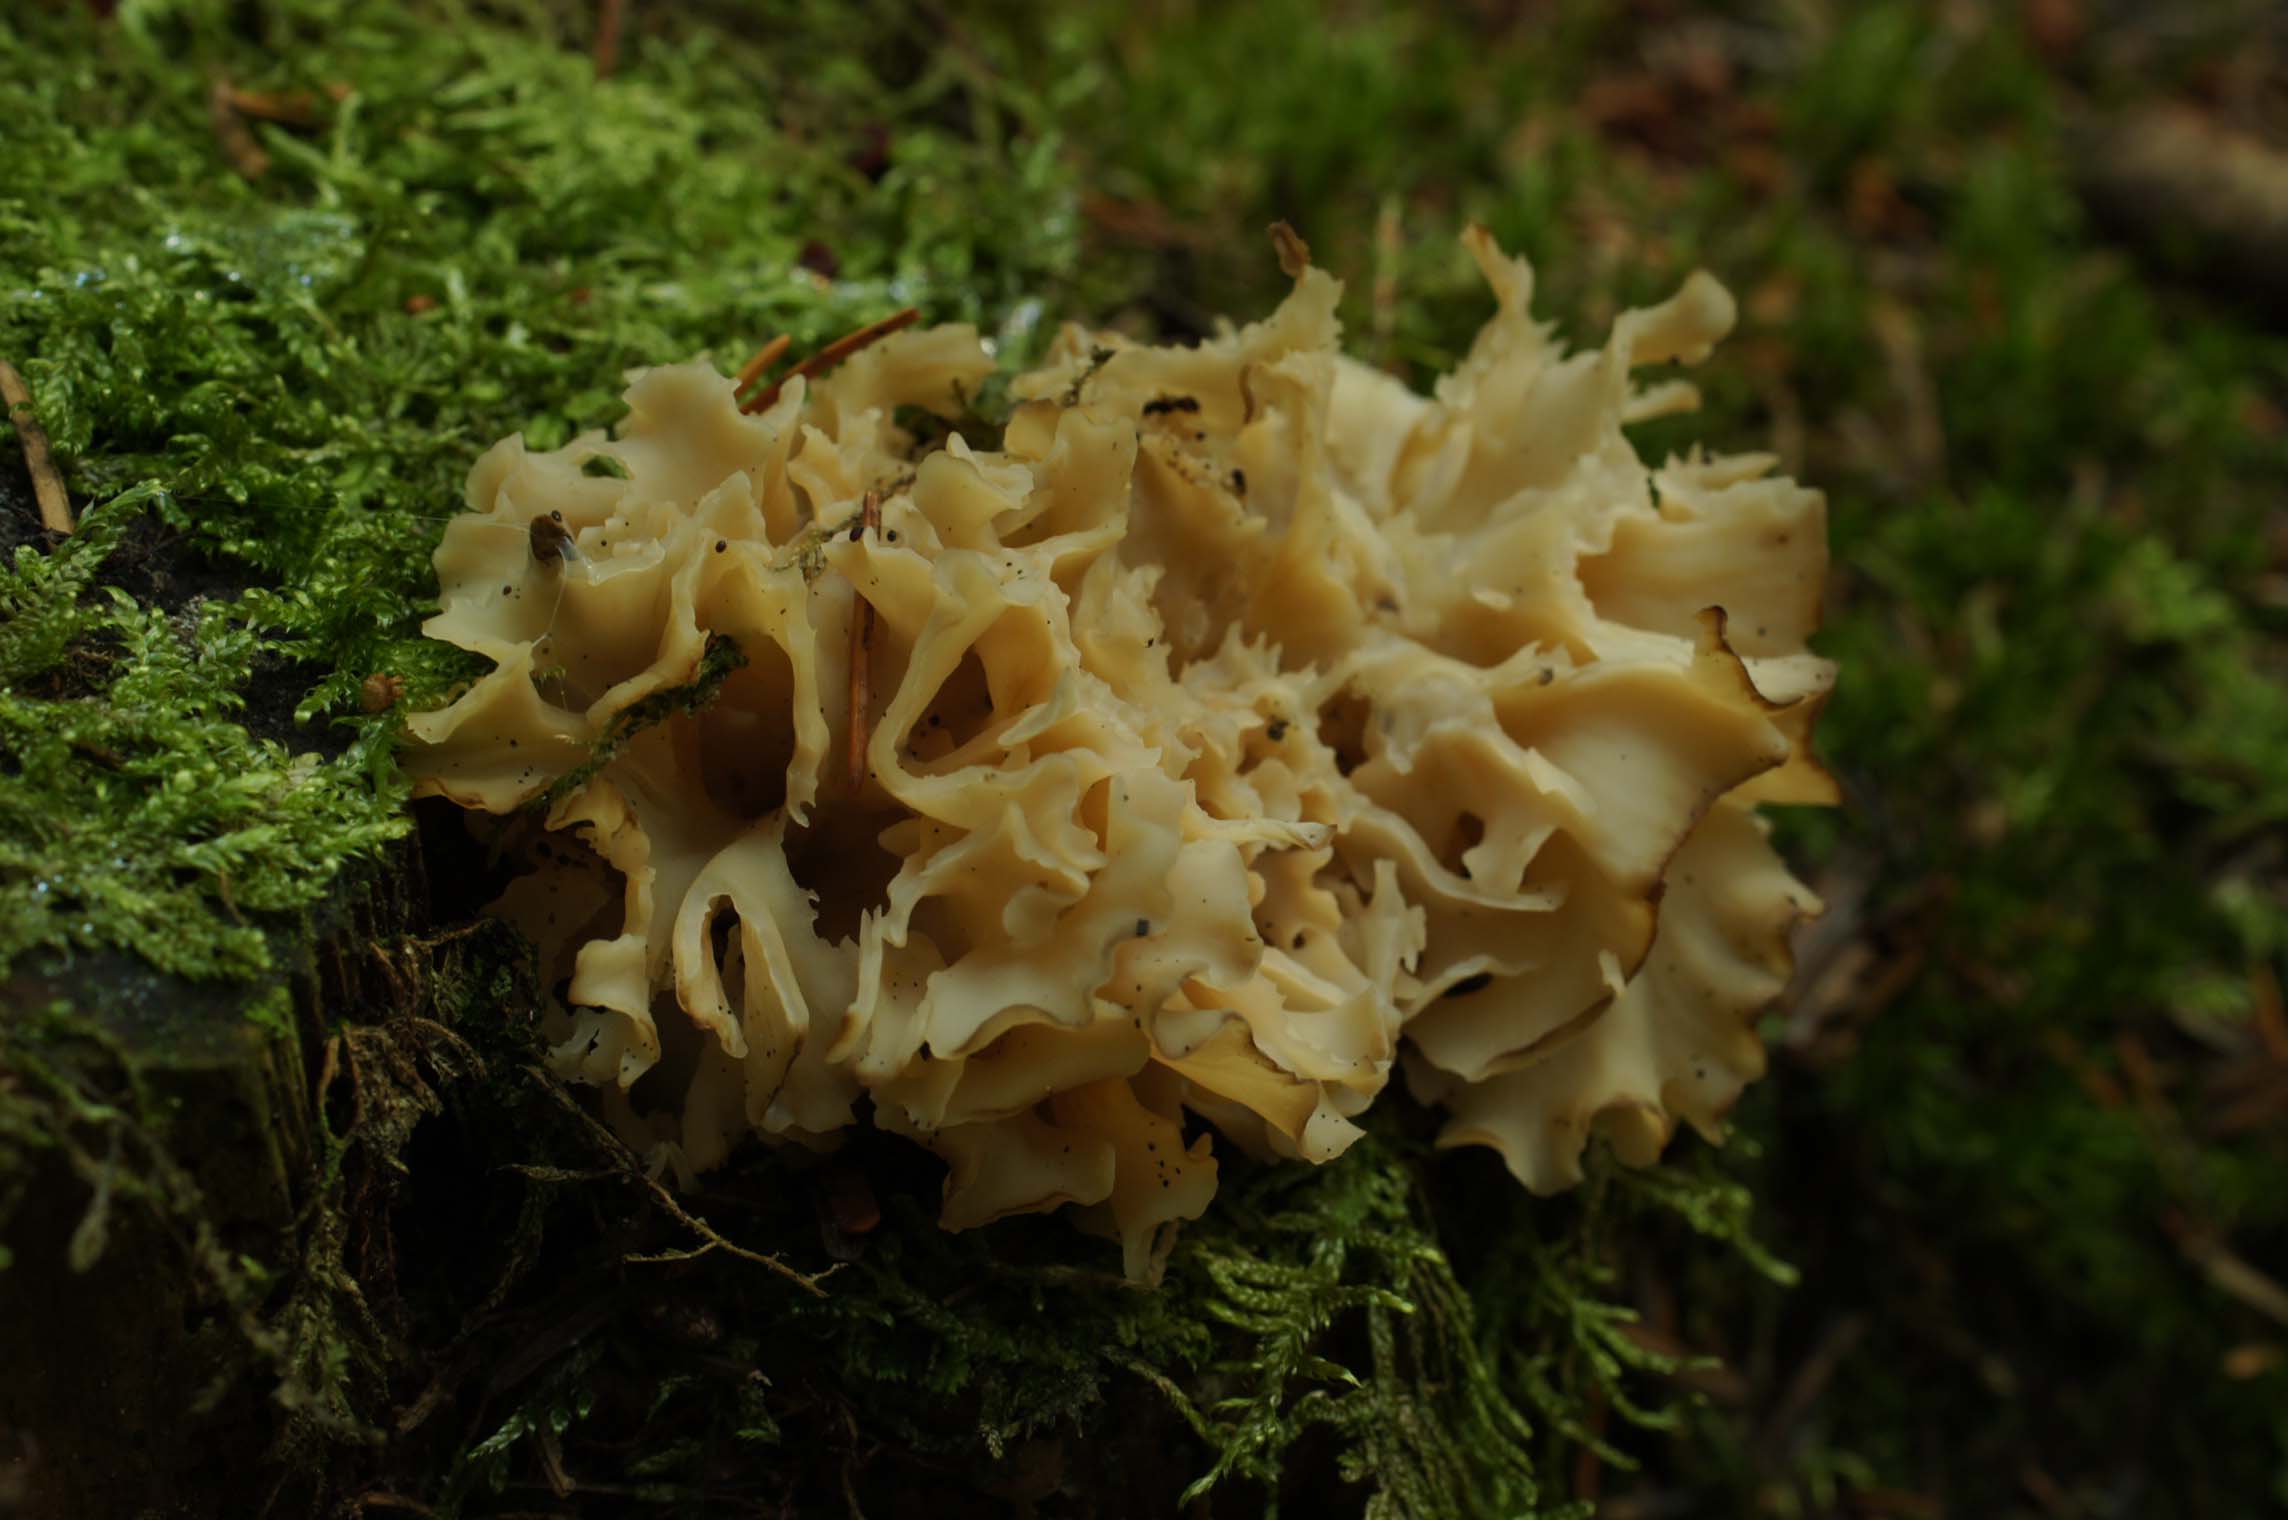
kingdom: Fungi
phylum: Basidiomycota
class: Agaricomycetes
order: Polyporales
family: Sparassidaceae
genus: Sparassis
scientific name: Sparassis crispa
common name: kruset blomkålssvamp
